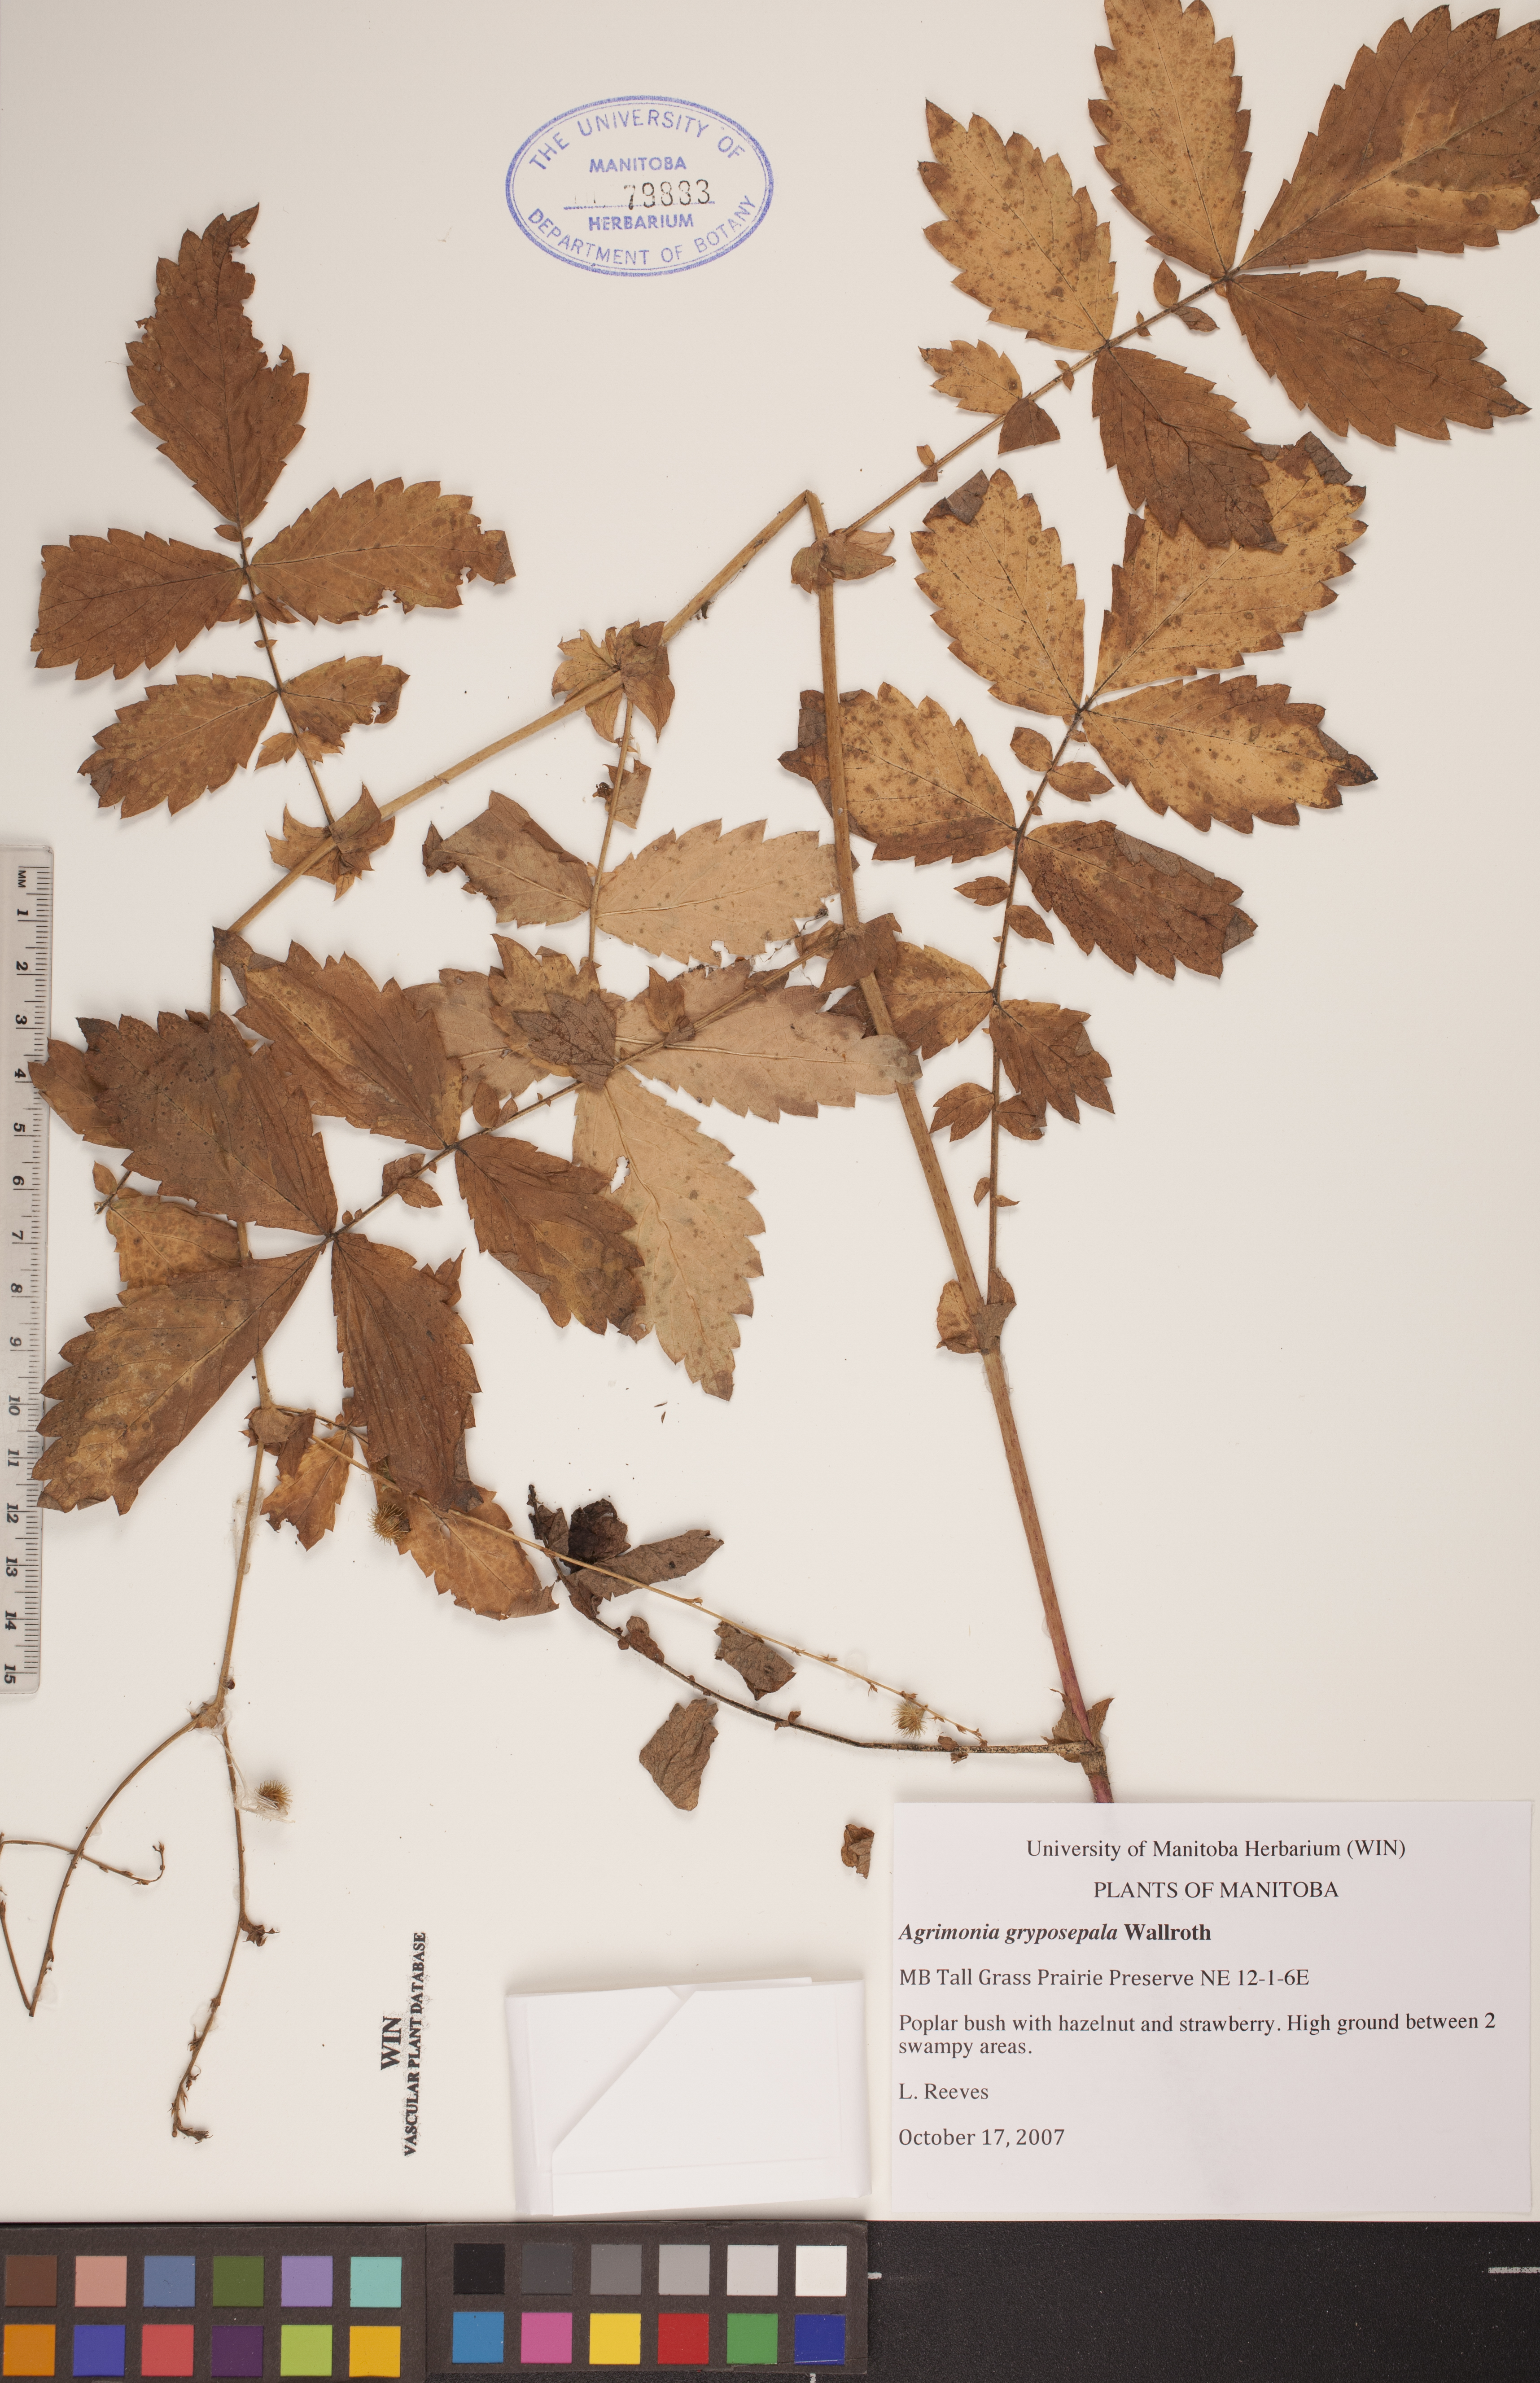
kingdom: Plantae
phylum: Tracheophyta
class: Magnoliopsida
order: Rosales
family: Rosaceae
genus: Agrimonia
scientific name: Agrimonia gryposepala
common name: Common agrimony
